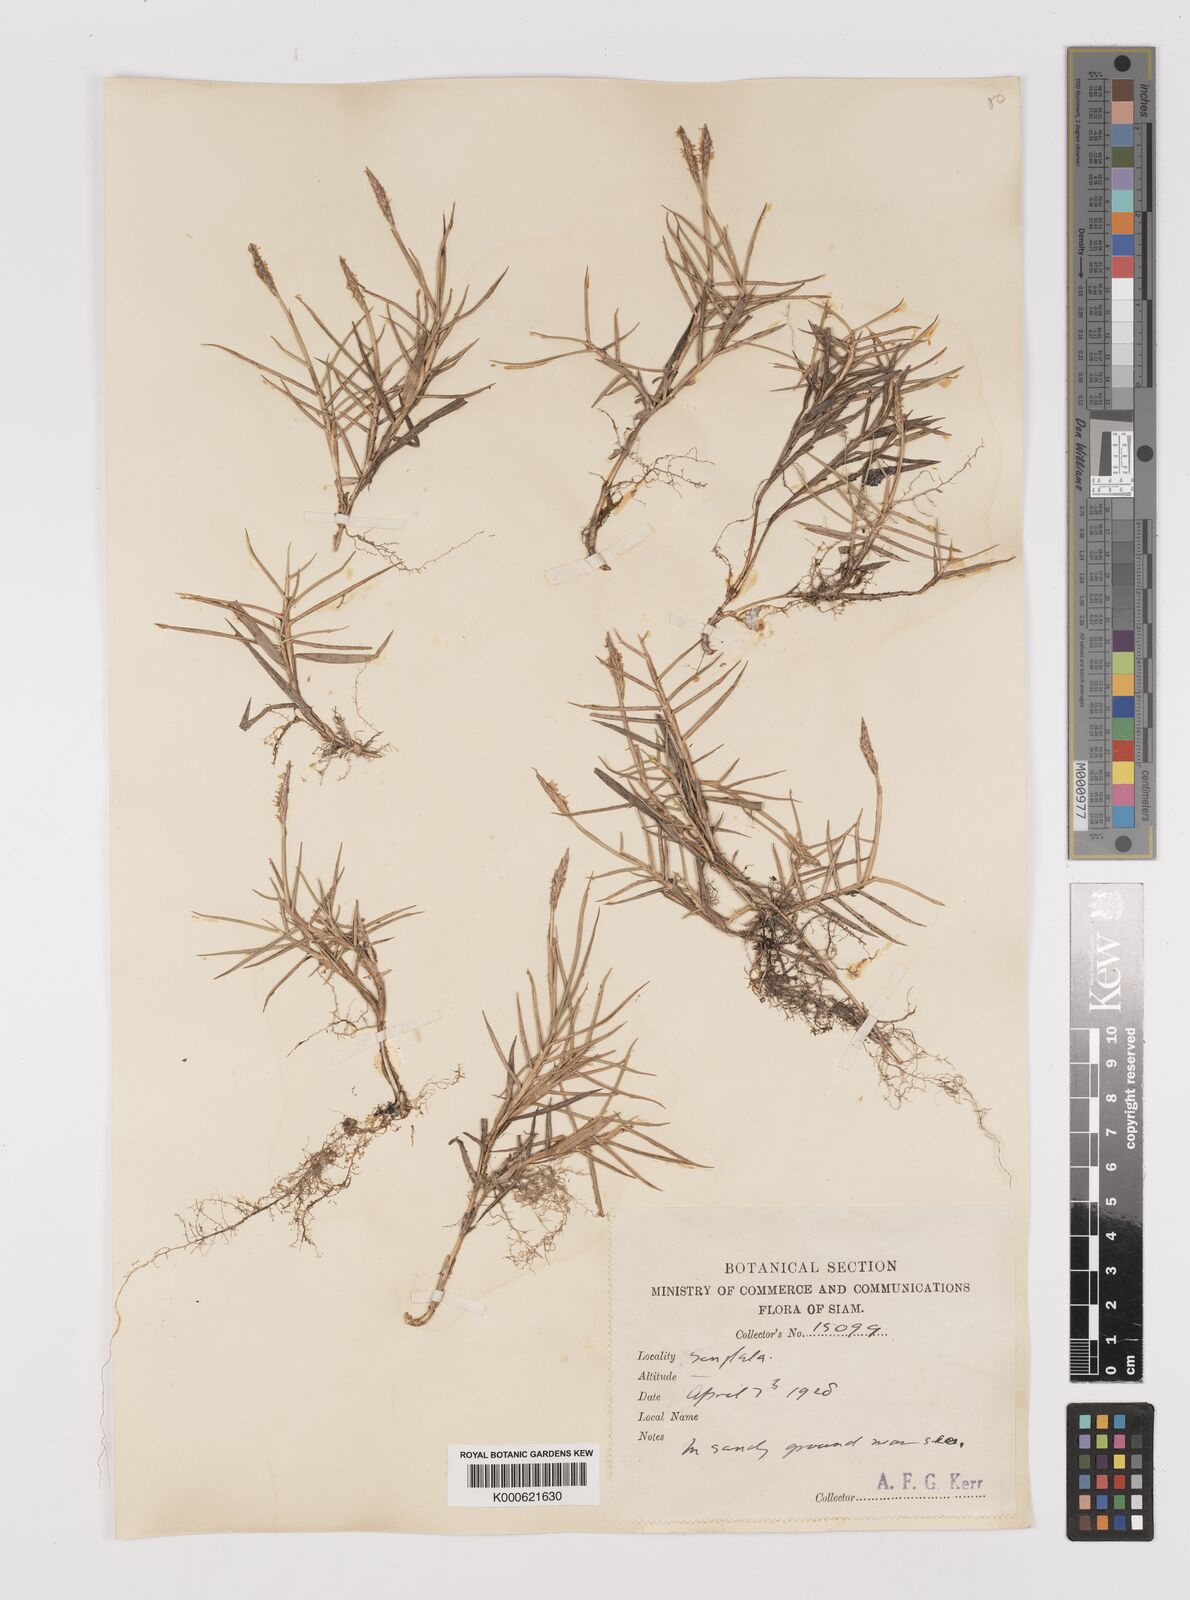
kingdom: Plantae
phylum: Tracheophyta
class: Liliopsida
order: Poales
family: Poaceae
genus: Zoysia
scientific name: Zoysia matrella
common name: Manila grass
